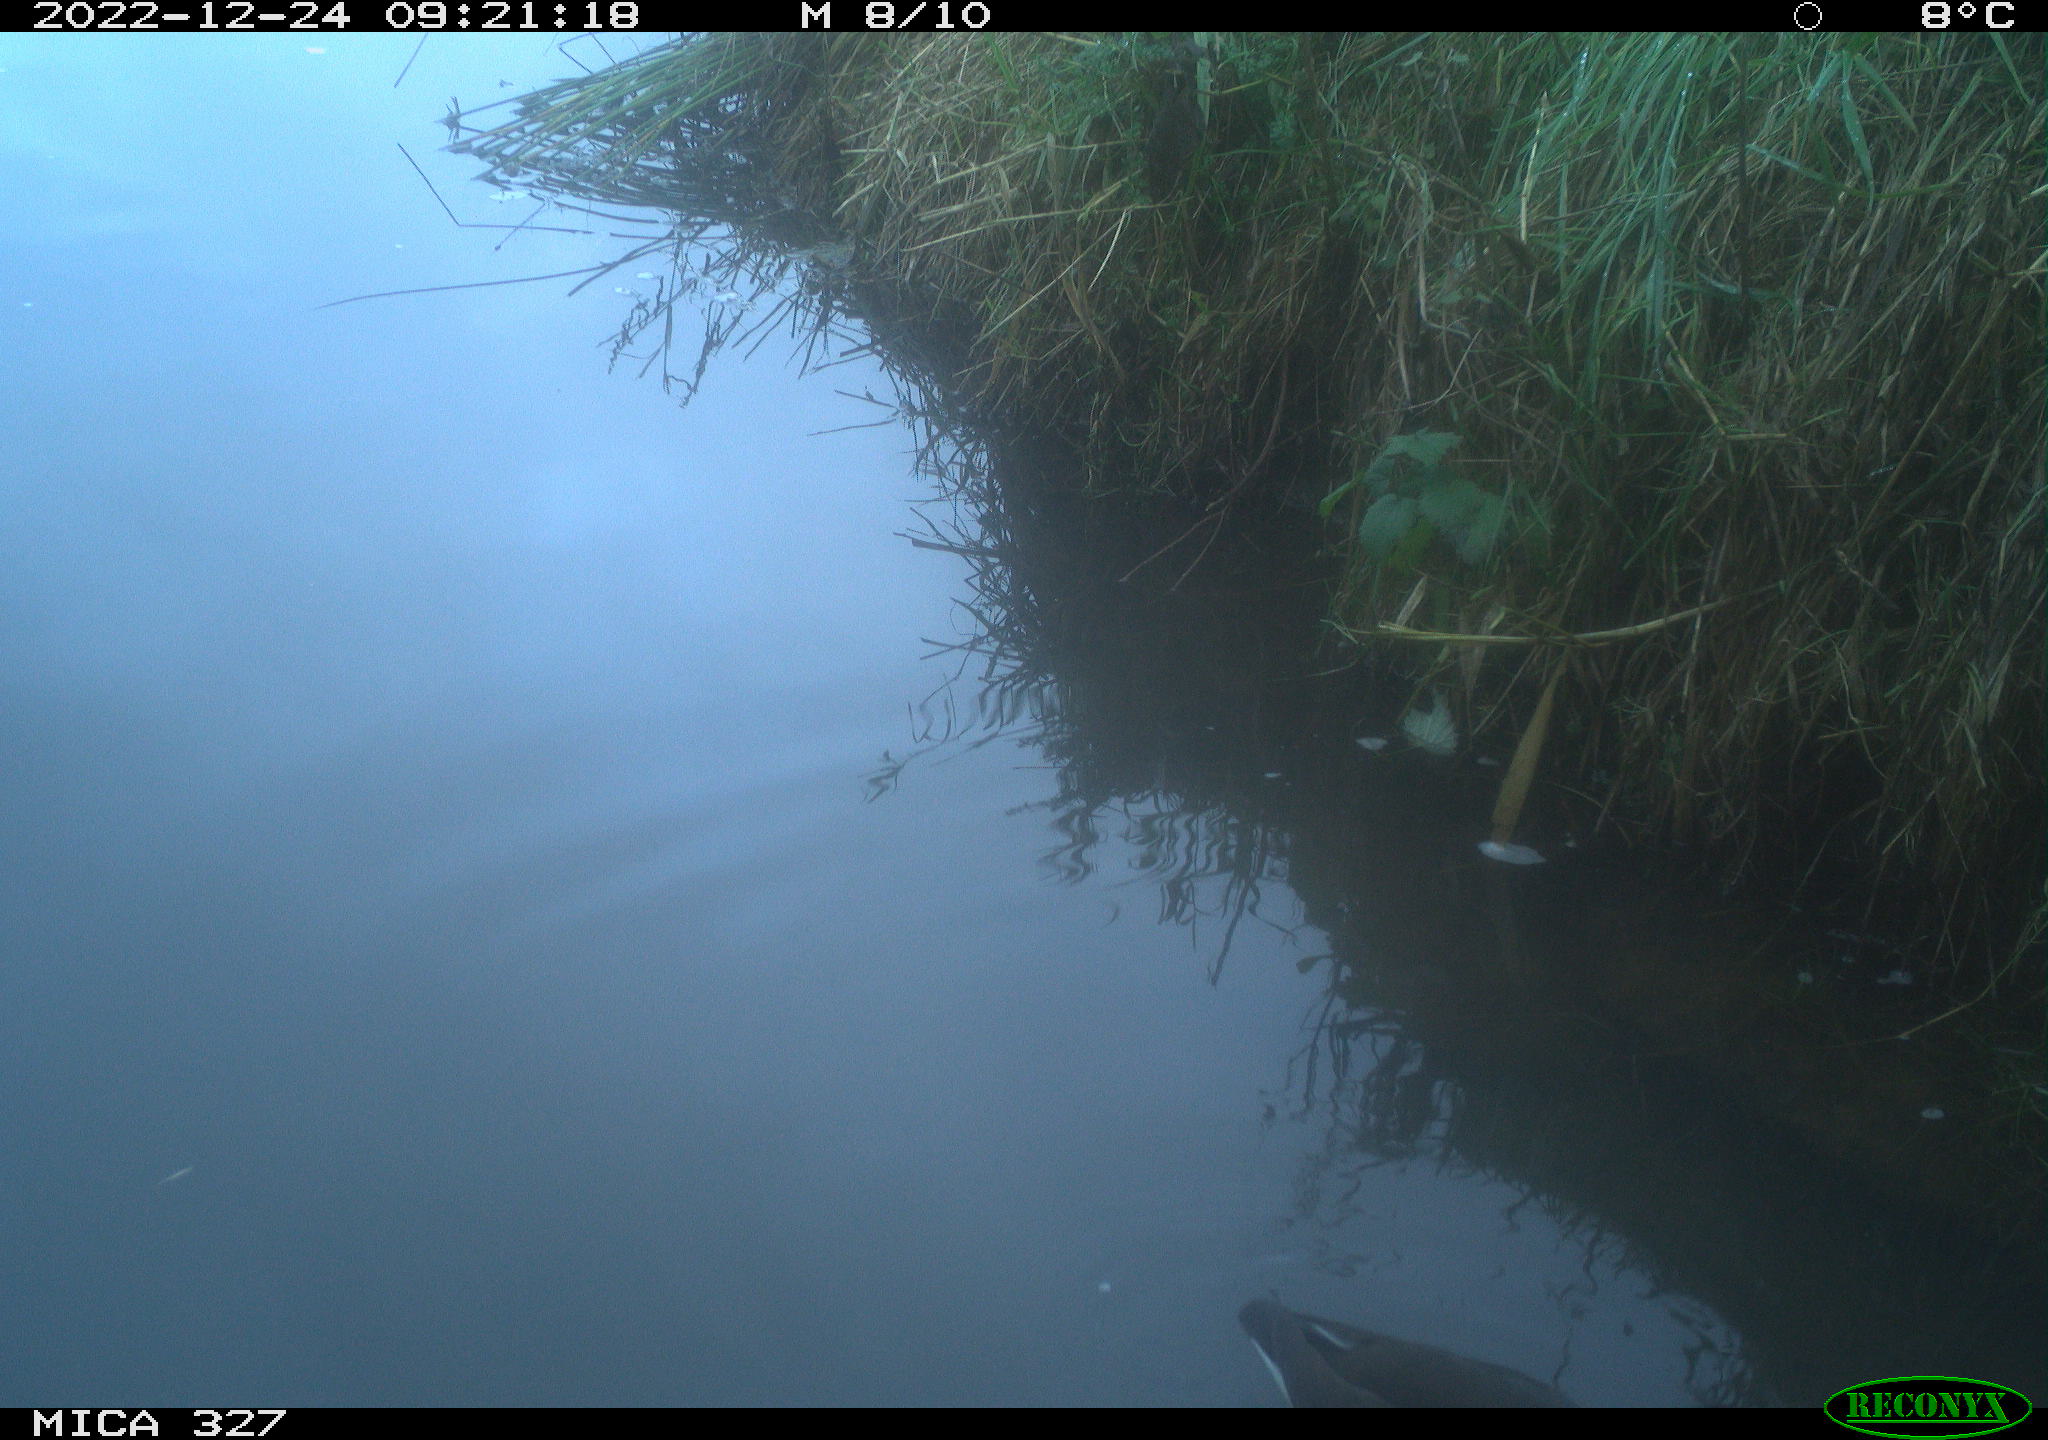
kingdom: Animalia
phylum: Chordata
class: Aves
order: Gruiformes
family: Rallidae
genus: Gallinula
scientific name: Gallinula chloropus
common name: Common moorhen
